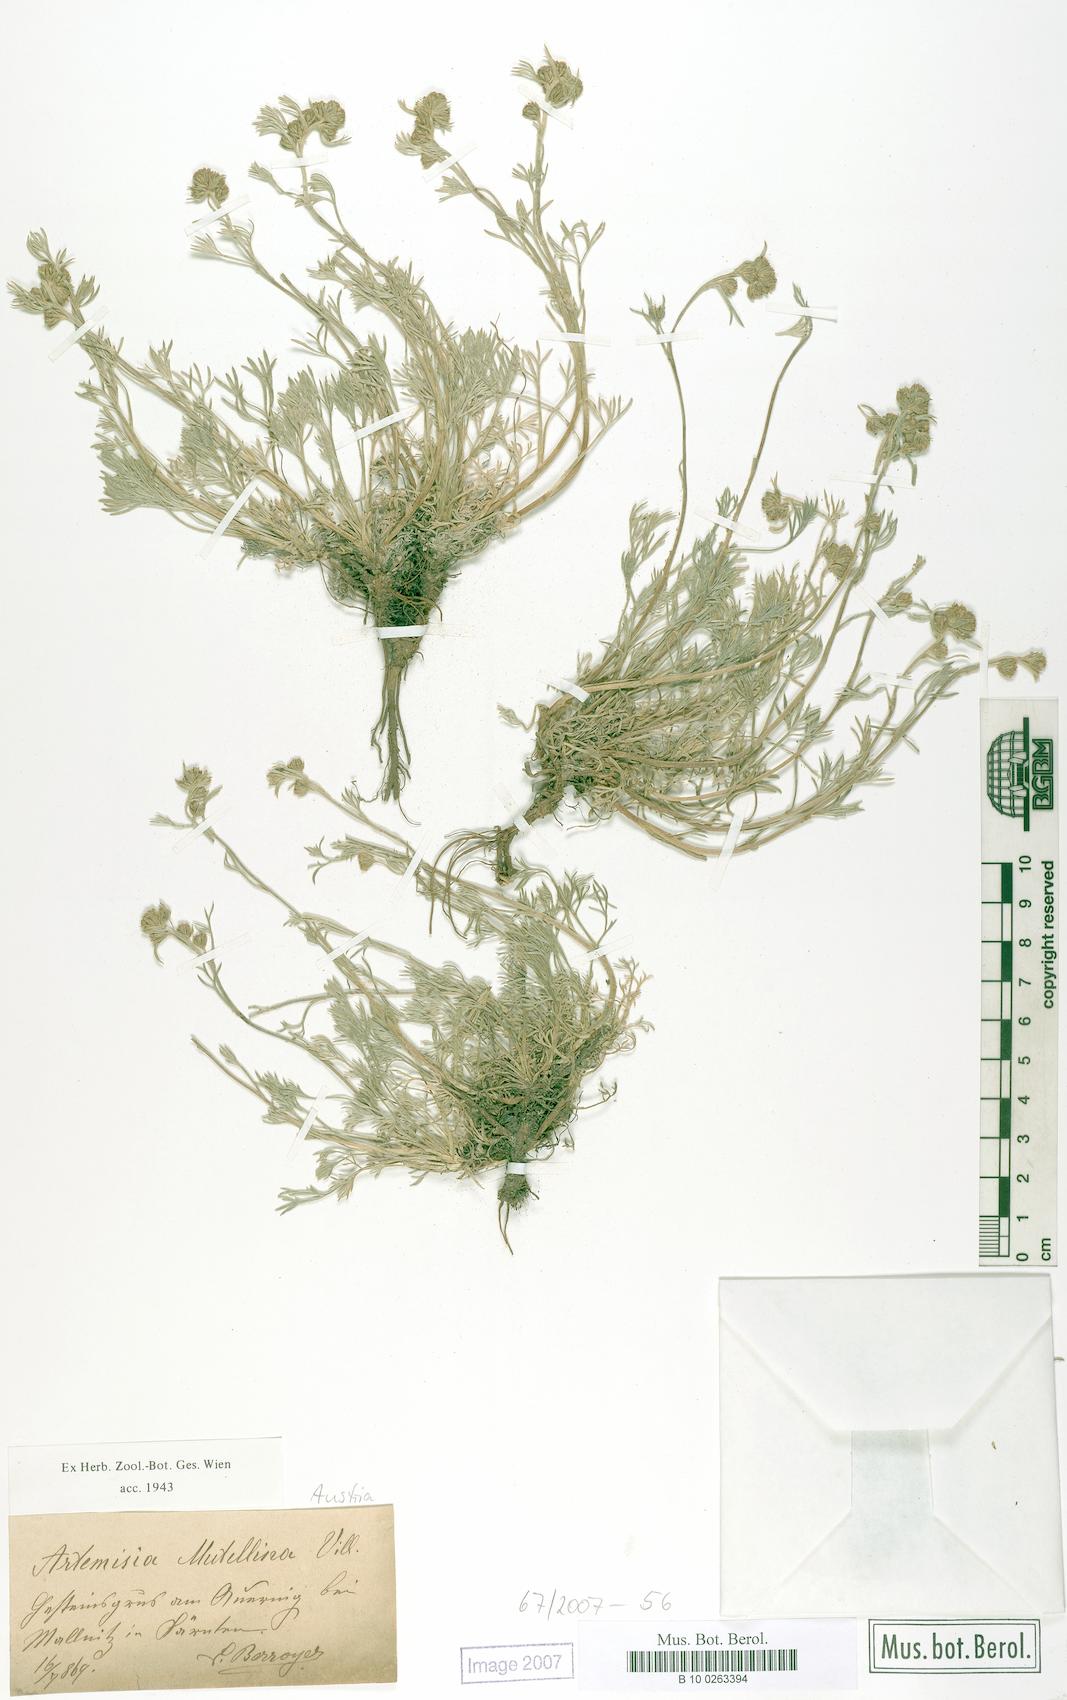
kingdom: Plantae
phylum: Tracheophyta
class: Magnoliopsida
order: Asterales
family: Asteraceae
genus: Artemisia
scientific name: Artemisia mutellina
